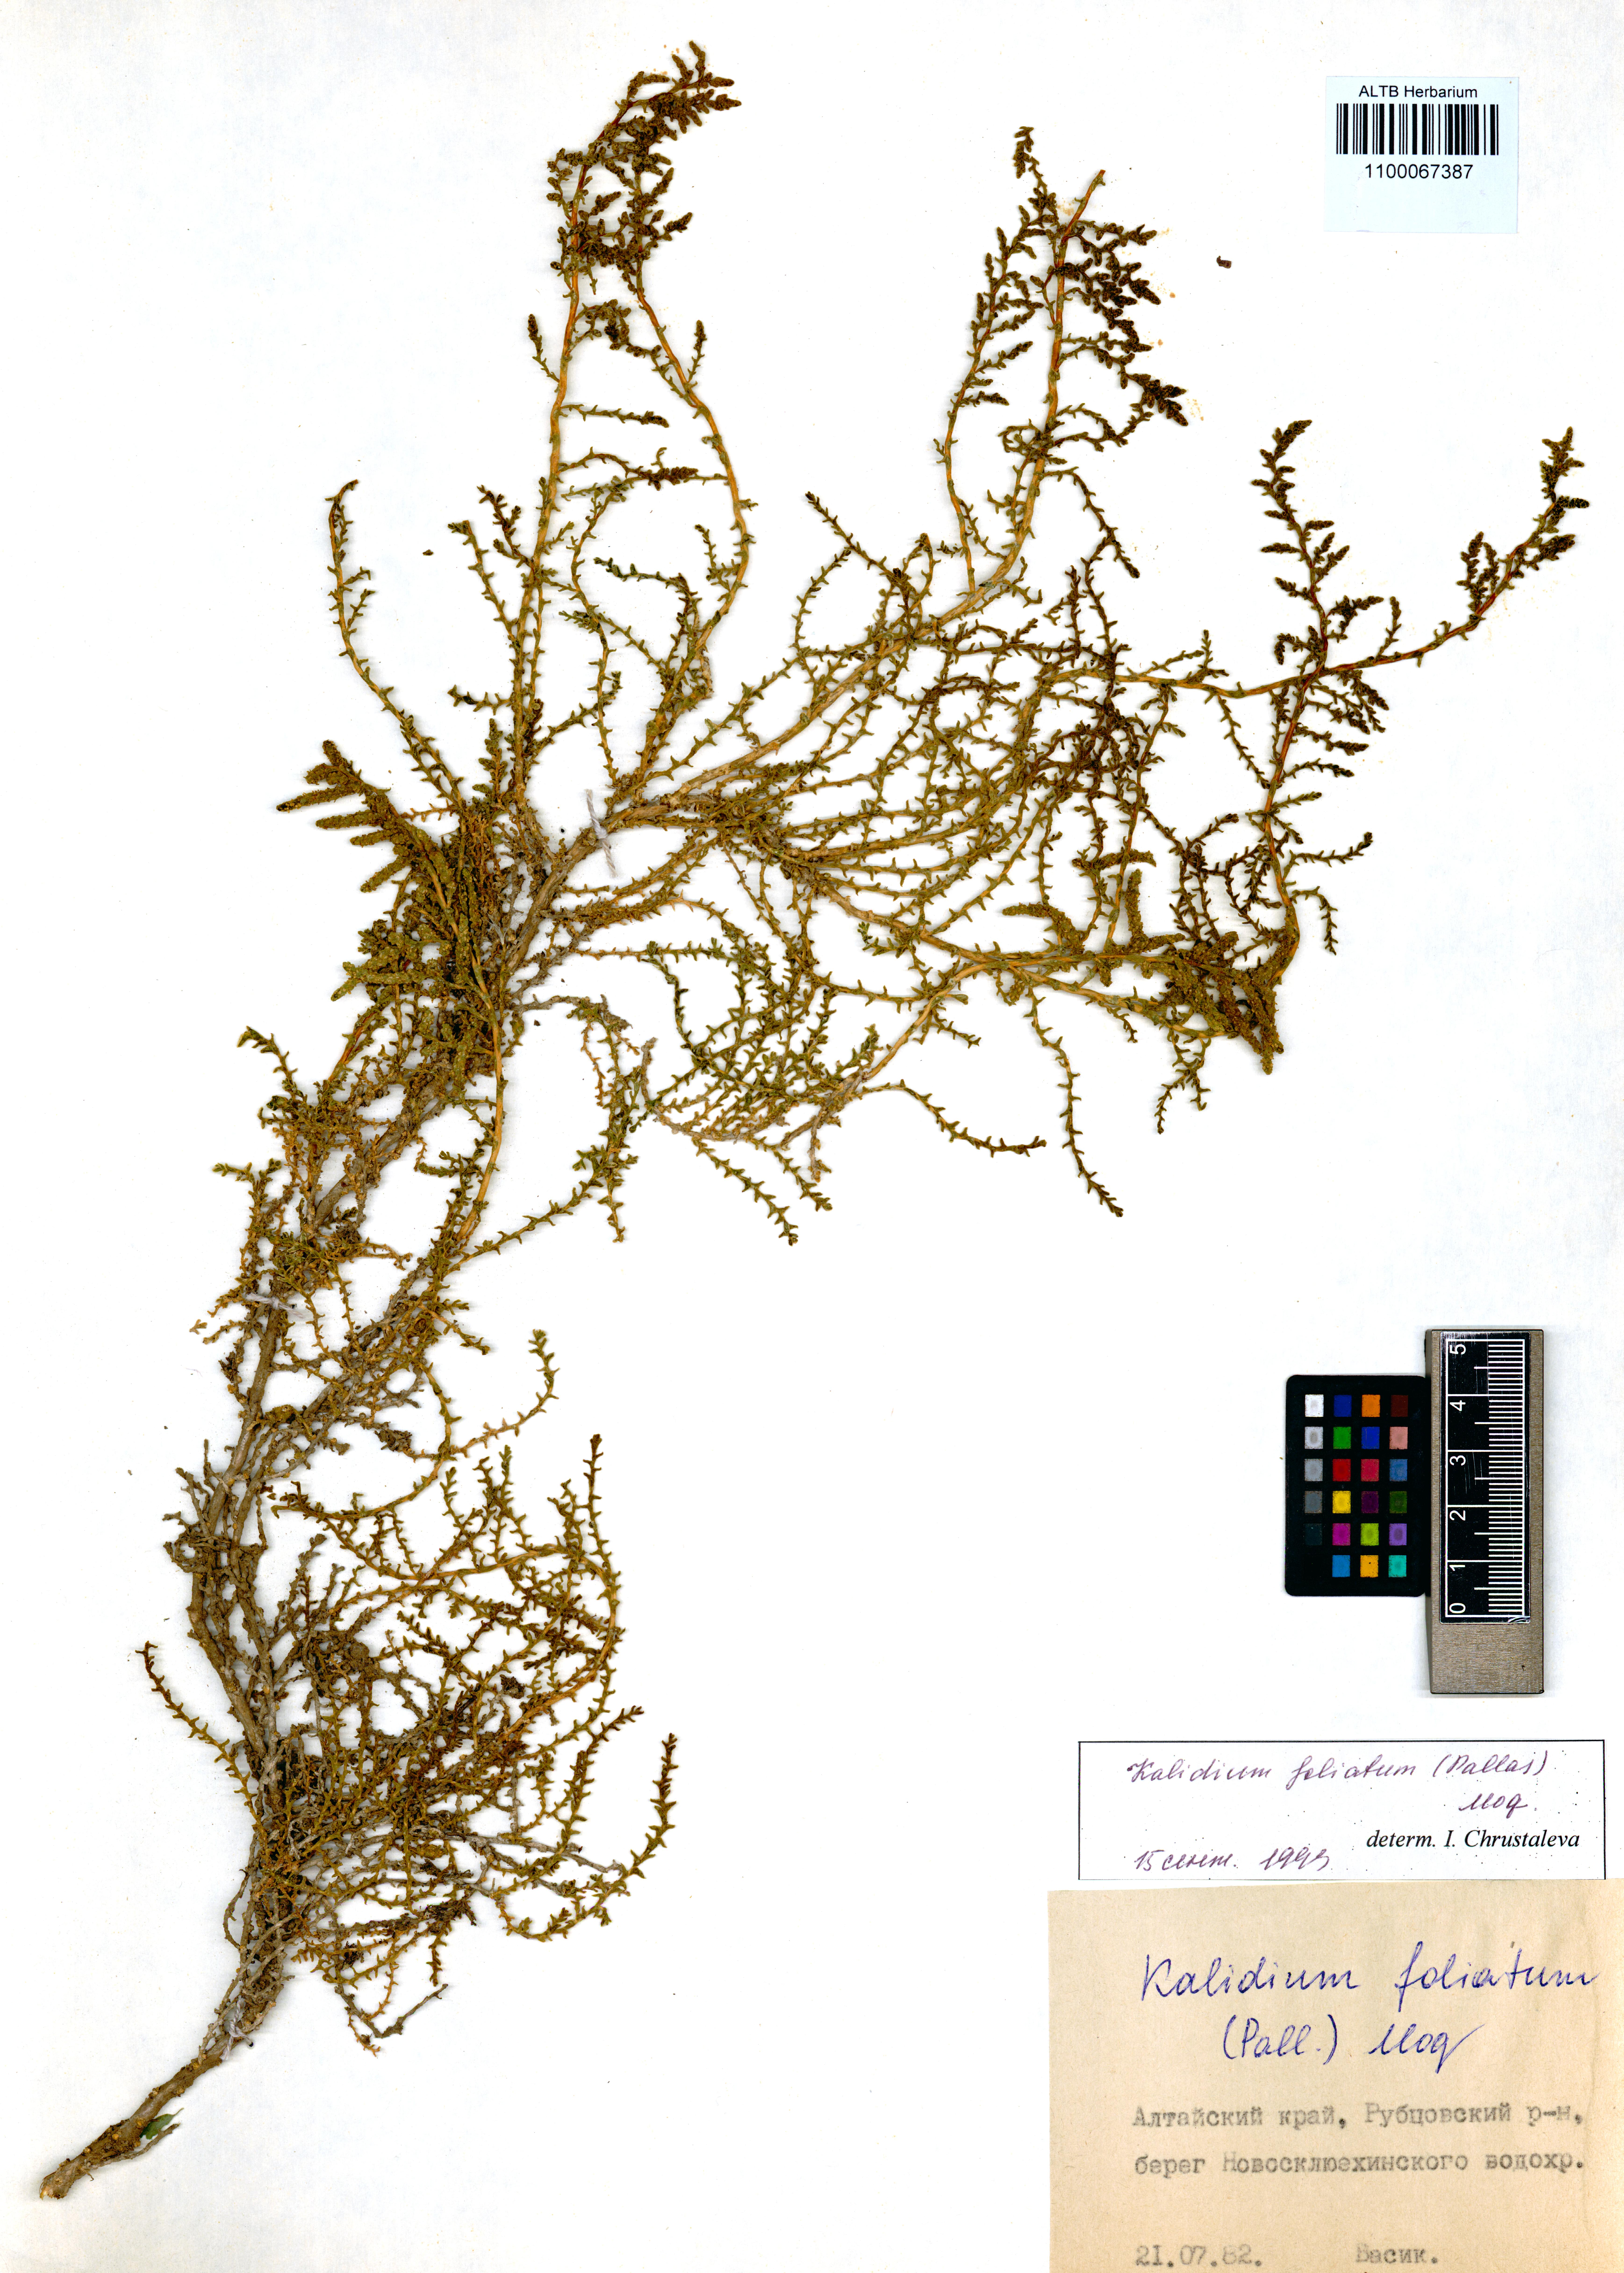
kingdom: Plantae
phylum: Tracheophyta
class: Magnoliopsida
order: Caryophyllales
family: Amaranthaceae
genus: Kalidium
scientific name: Kalidium foliatum
